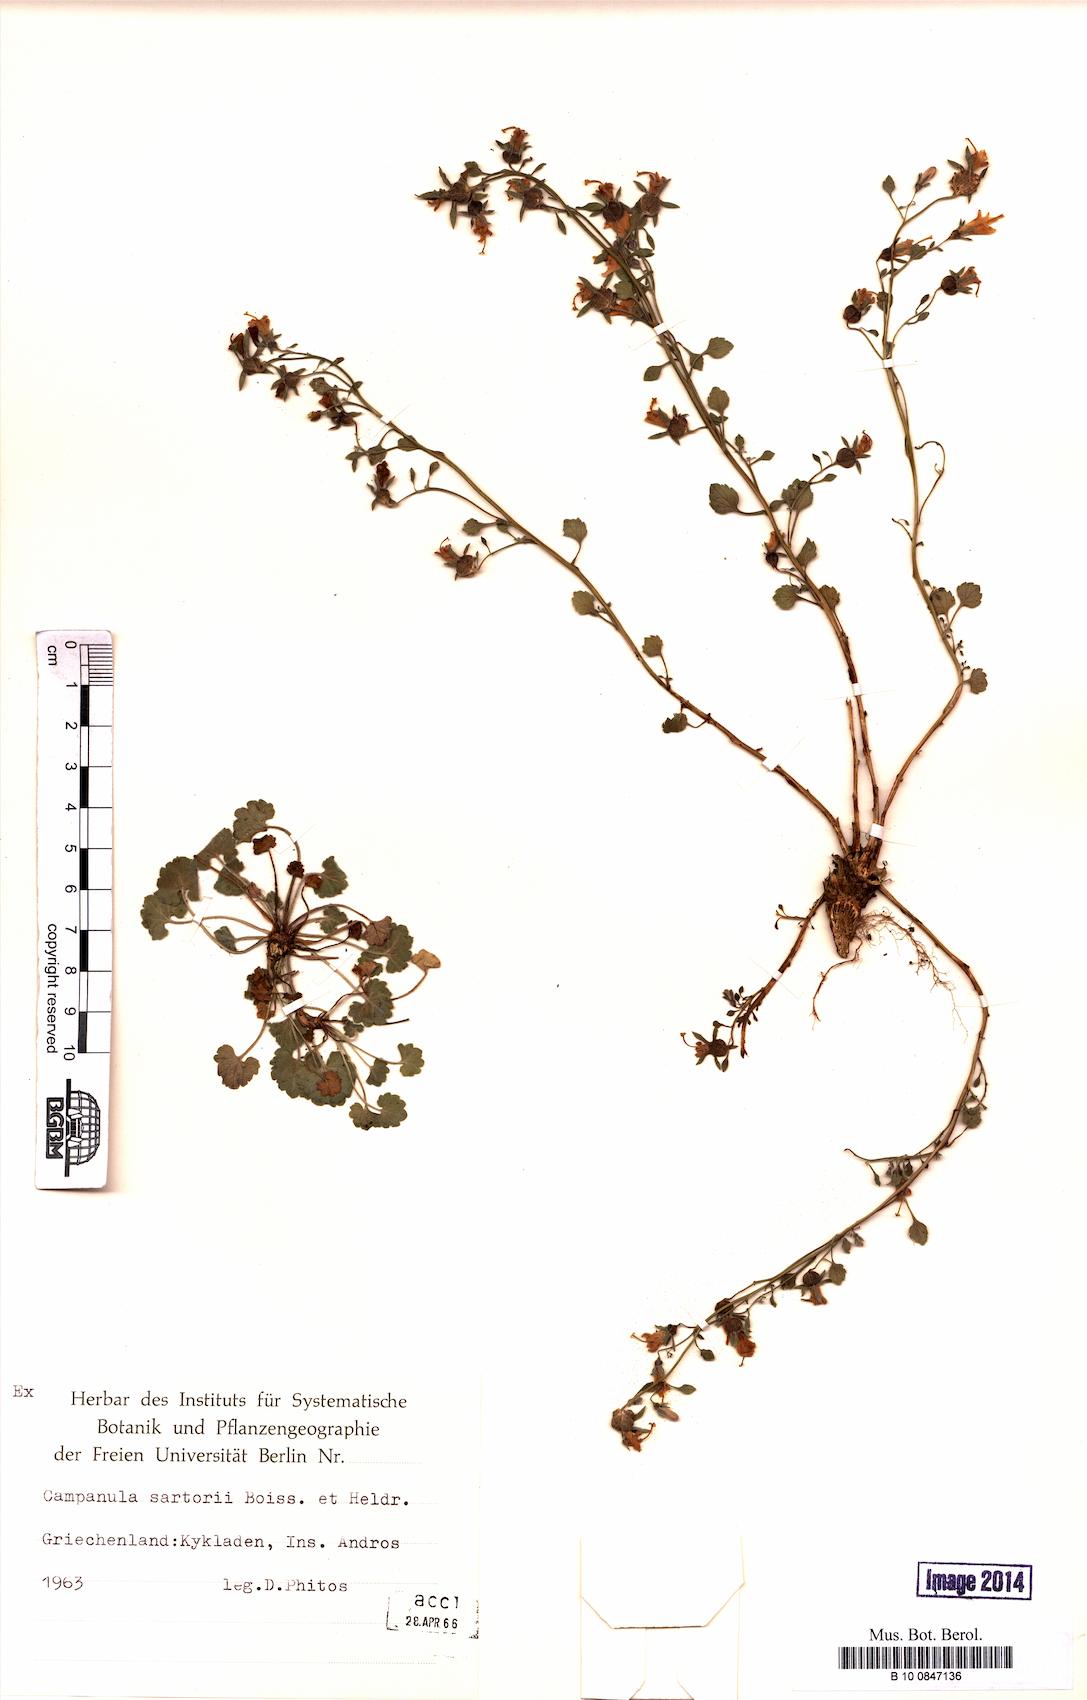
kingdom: Plantae
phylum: Tracheophyta
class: Magnoliopsida
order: Asterales
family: Campanulaceae
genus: Campanula
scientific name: Campanula sartorii
